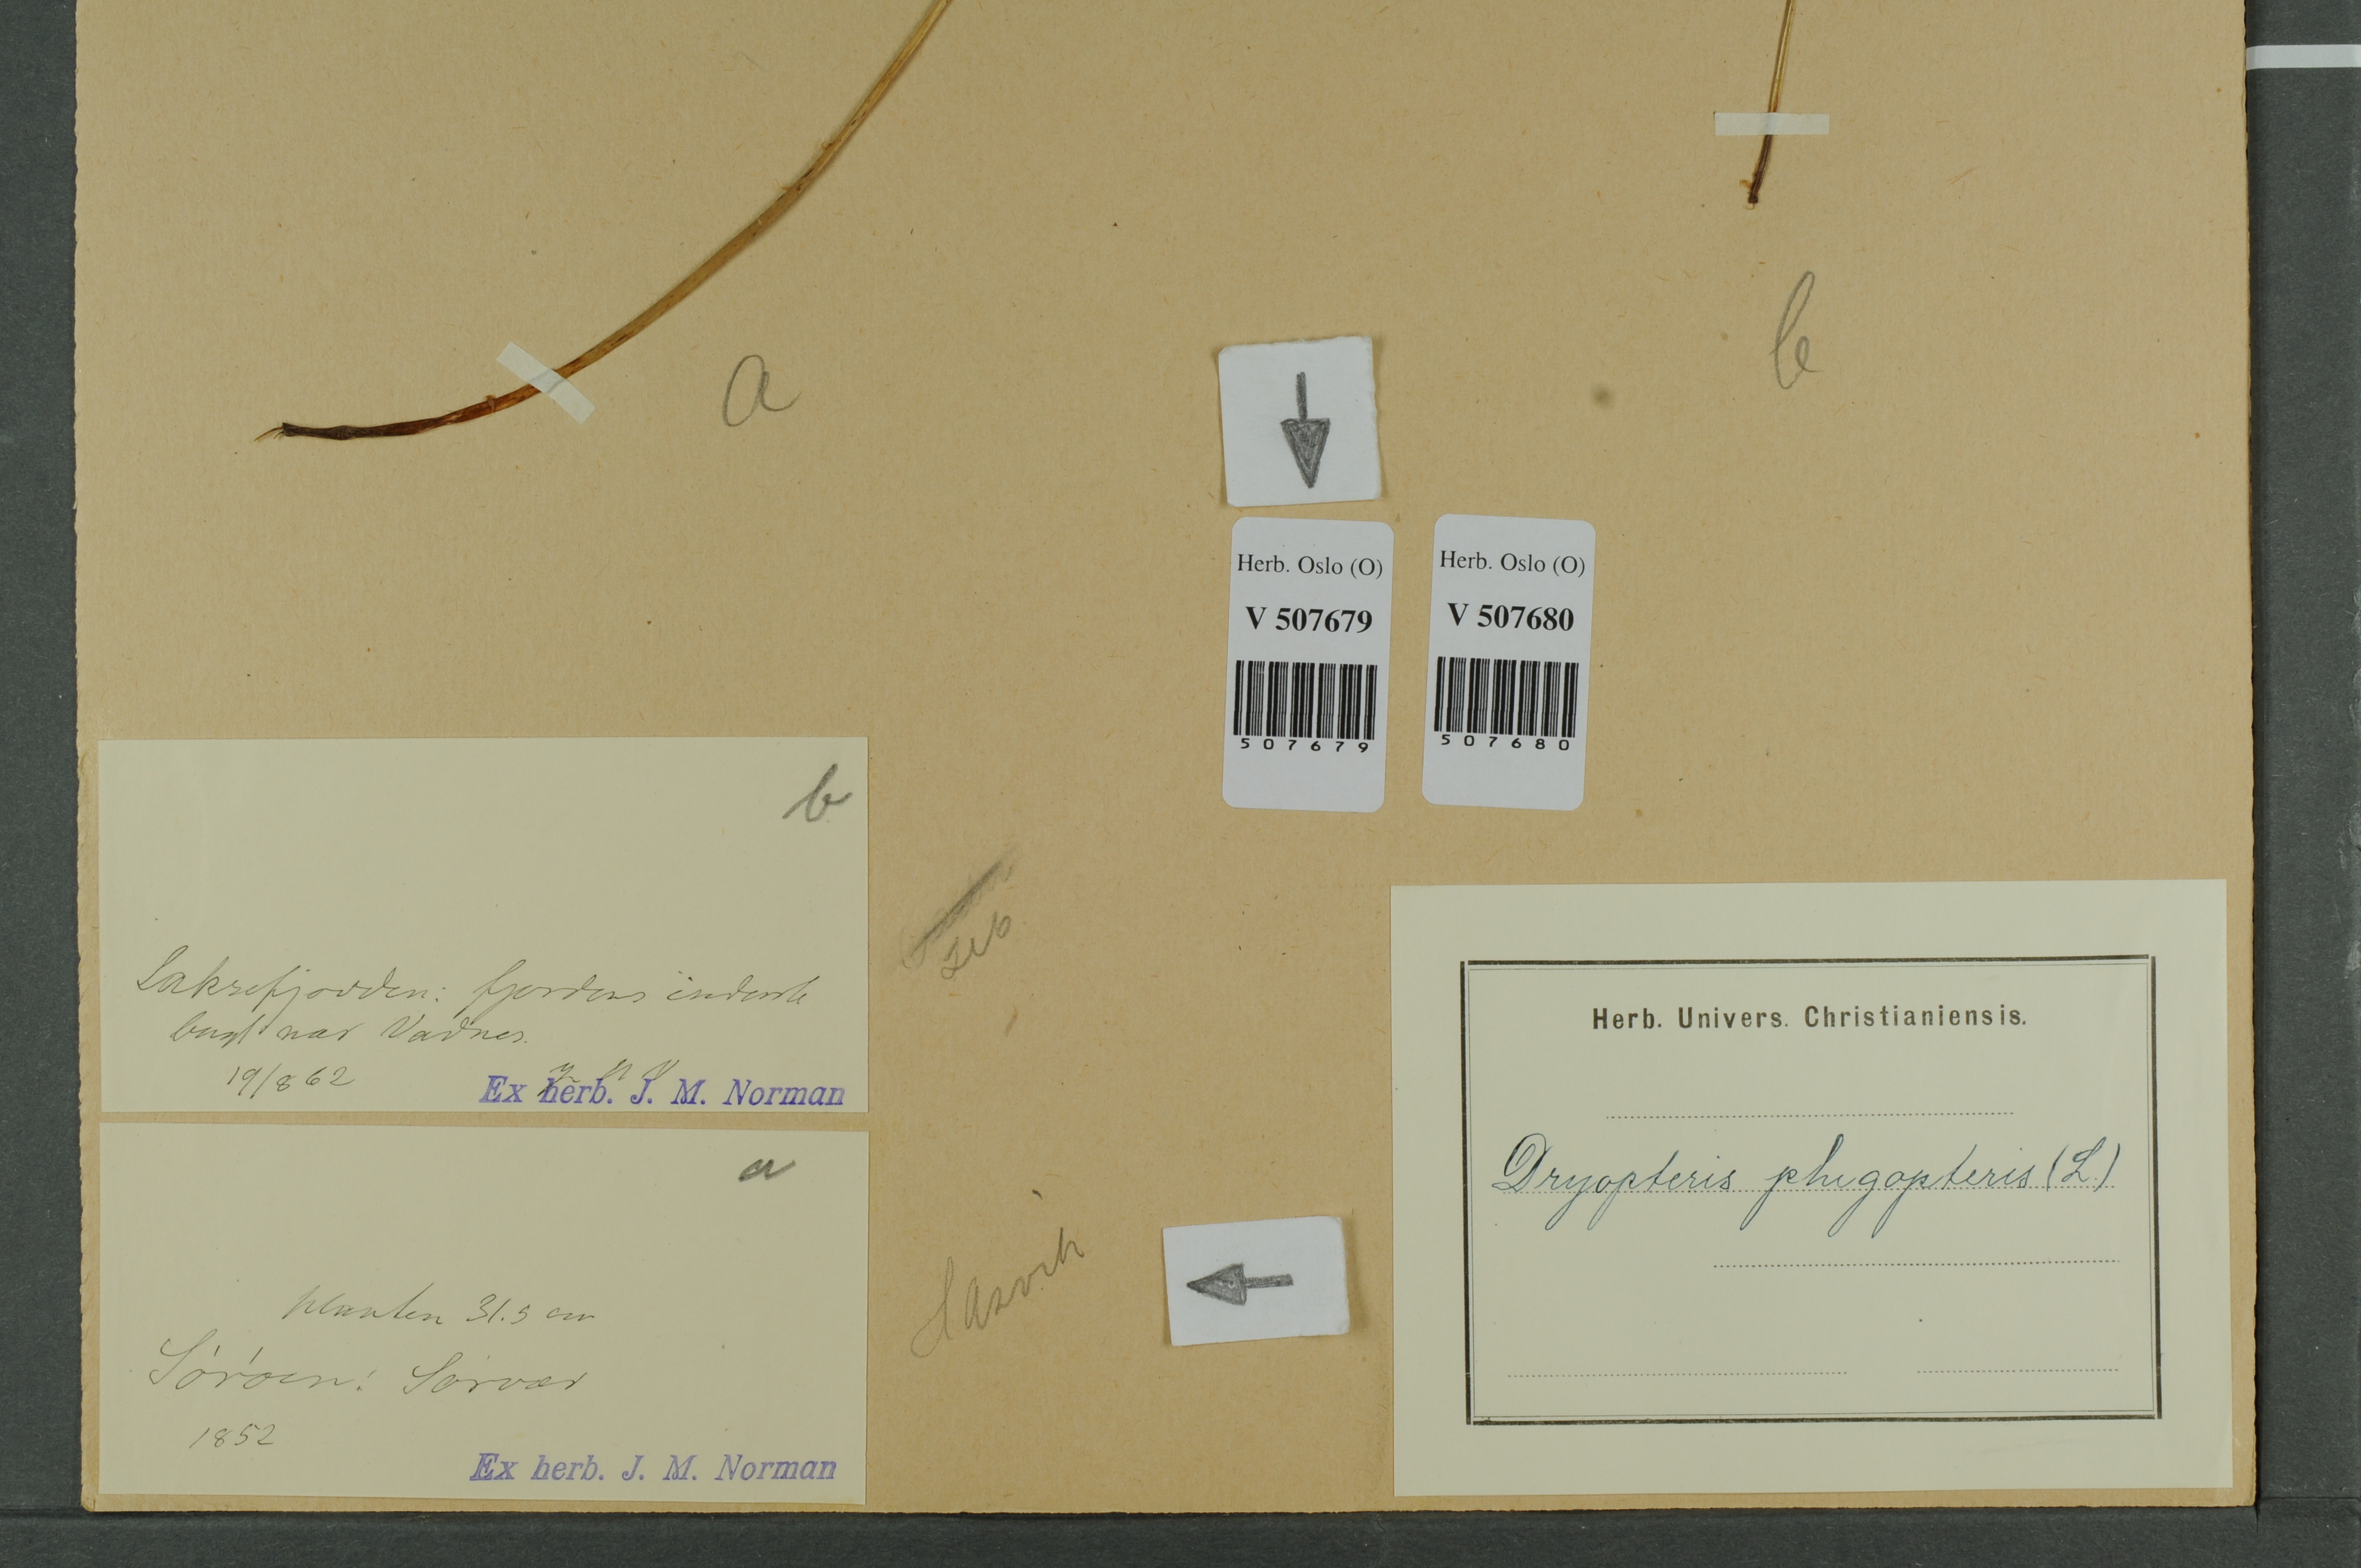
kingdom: Plantae
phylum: Tracheophyta
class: Polypodiopsida
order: Polypodiales
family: Thelypteridaceae
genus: Phegopteris
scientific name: Phegopteris connectilis
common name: Beech fern
